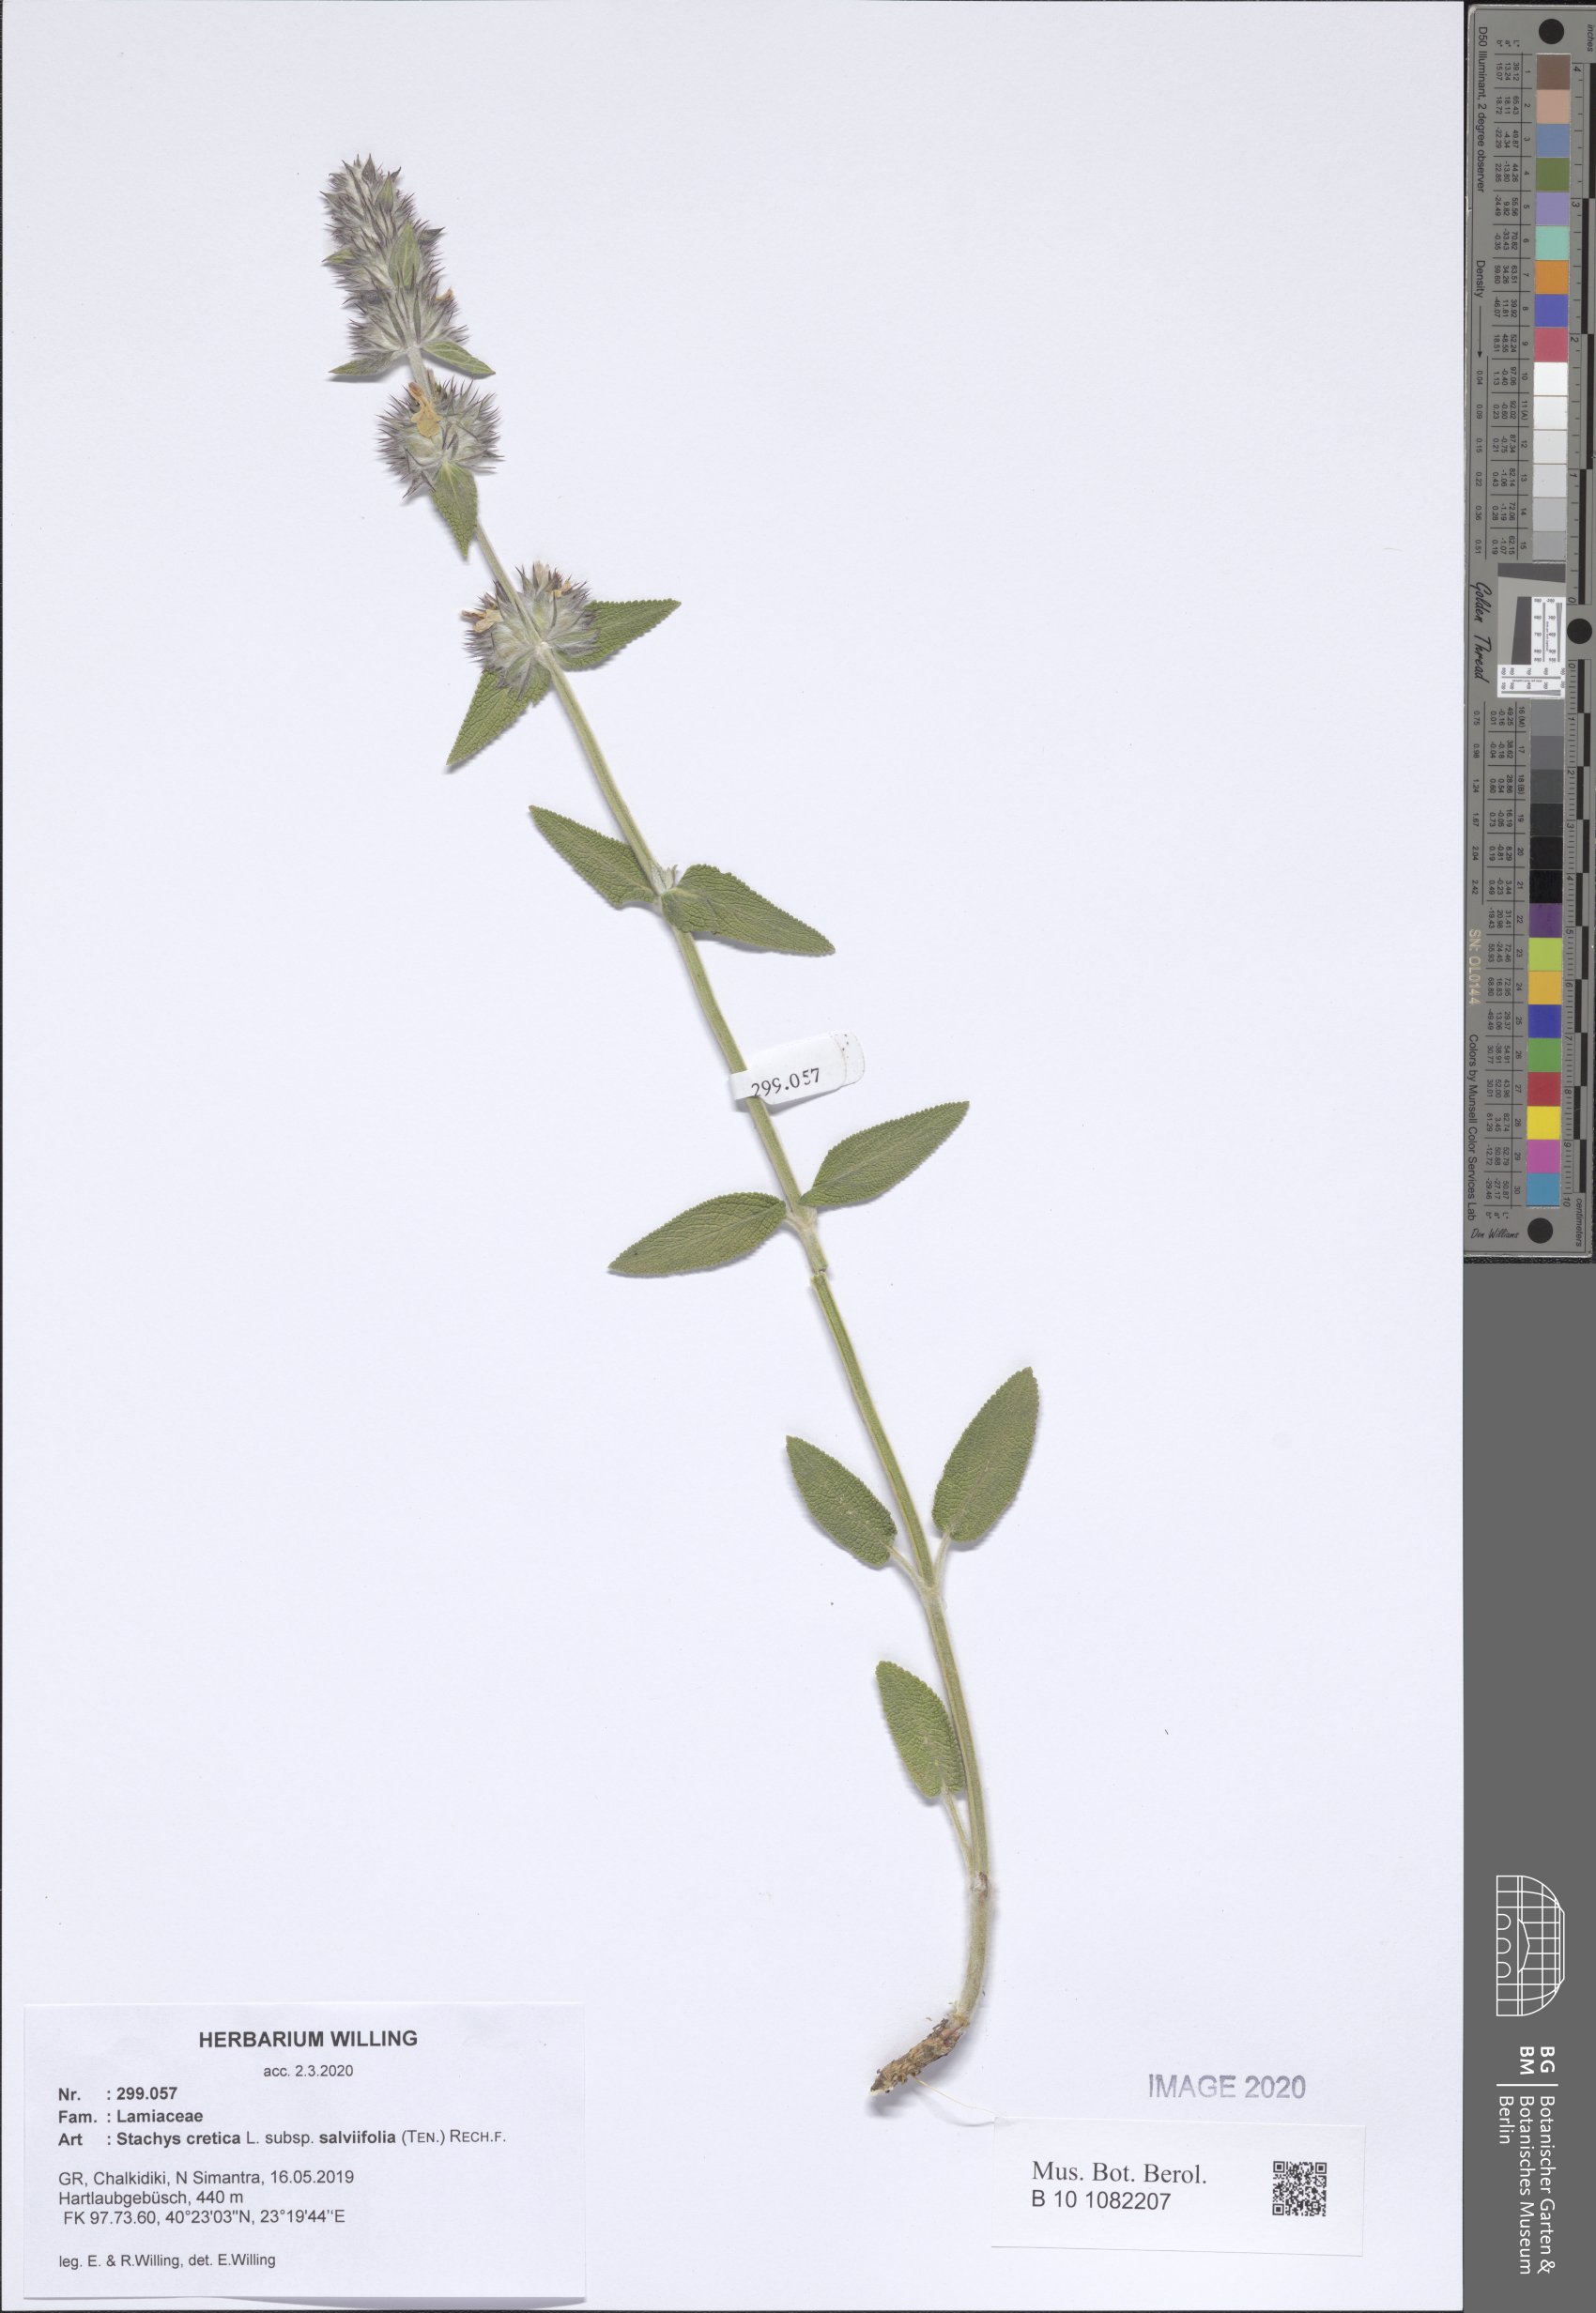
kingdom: Plantae
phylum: Tracheophyta
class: Magnoliopsida
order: Lamiales
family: Lamiaceae
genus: Stachys
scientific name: Stachys cretica
